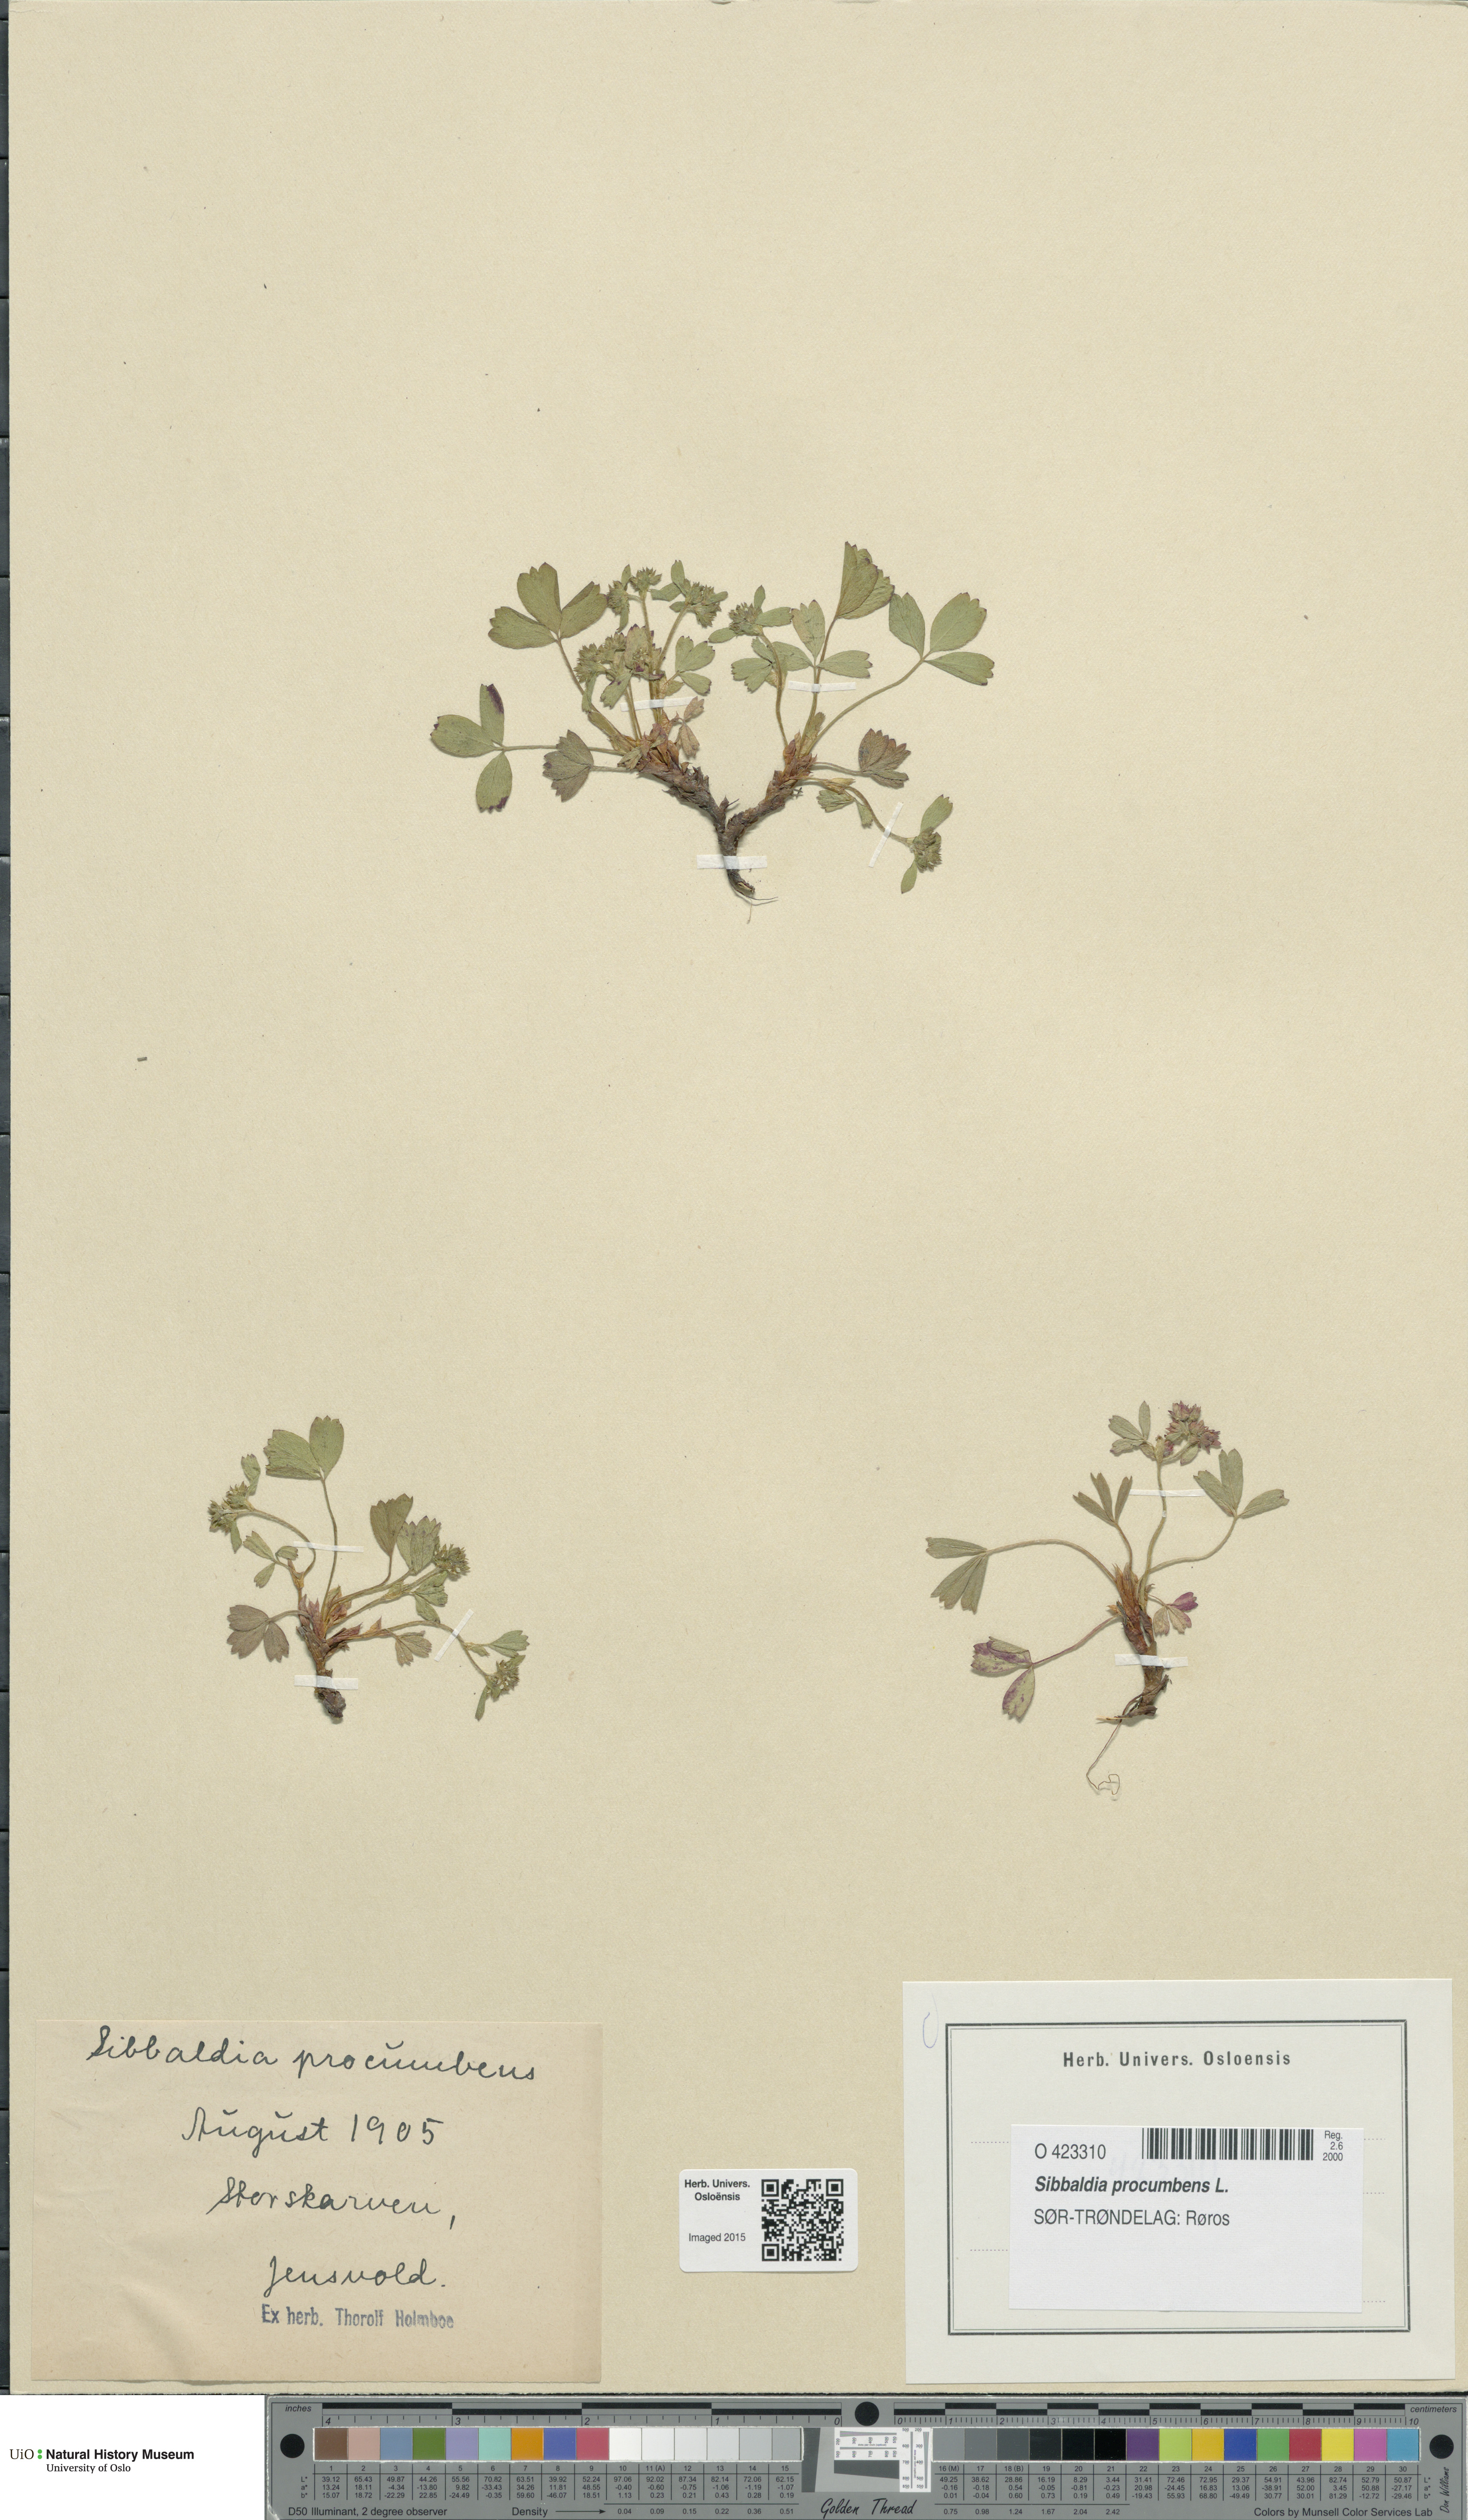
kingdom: Plantae
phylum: Tracheophyta
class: Magnoliopsida
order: Rosales
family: Rosaceae
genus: Sibbaldia
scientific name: Sibbaldia procumbens
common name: Creeping sibbaldia
